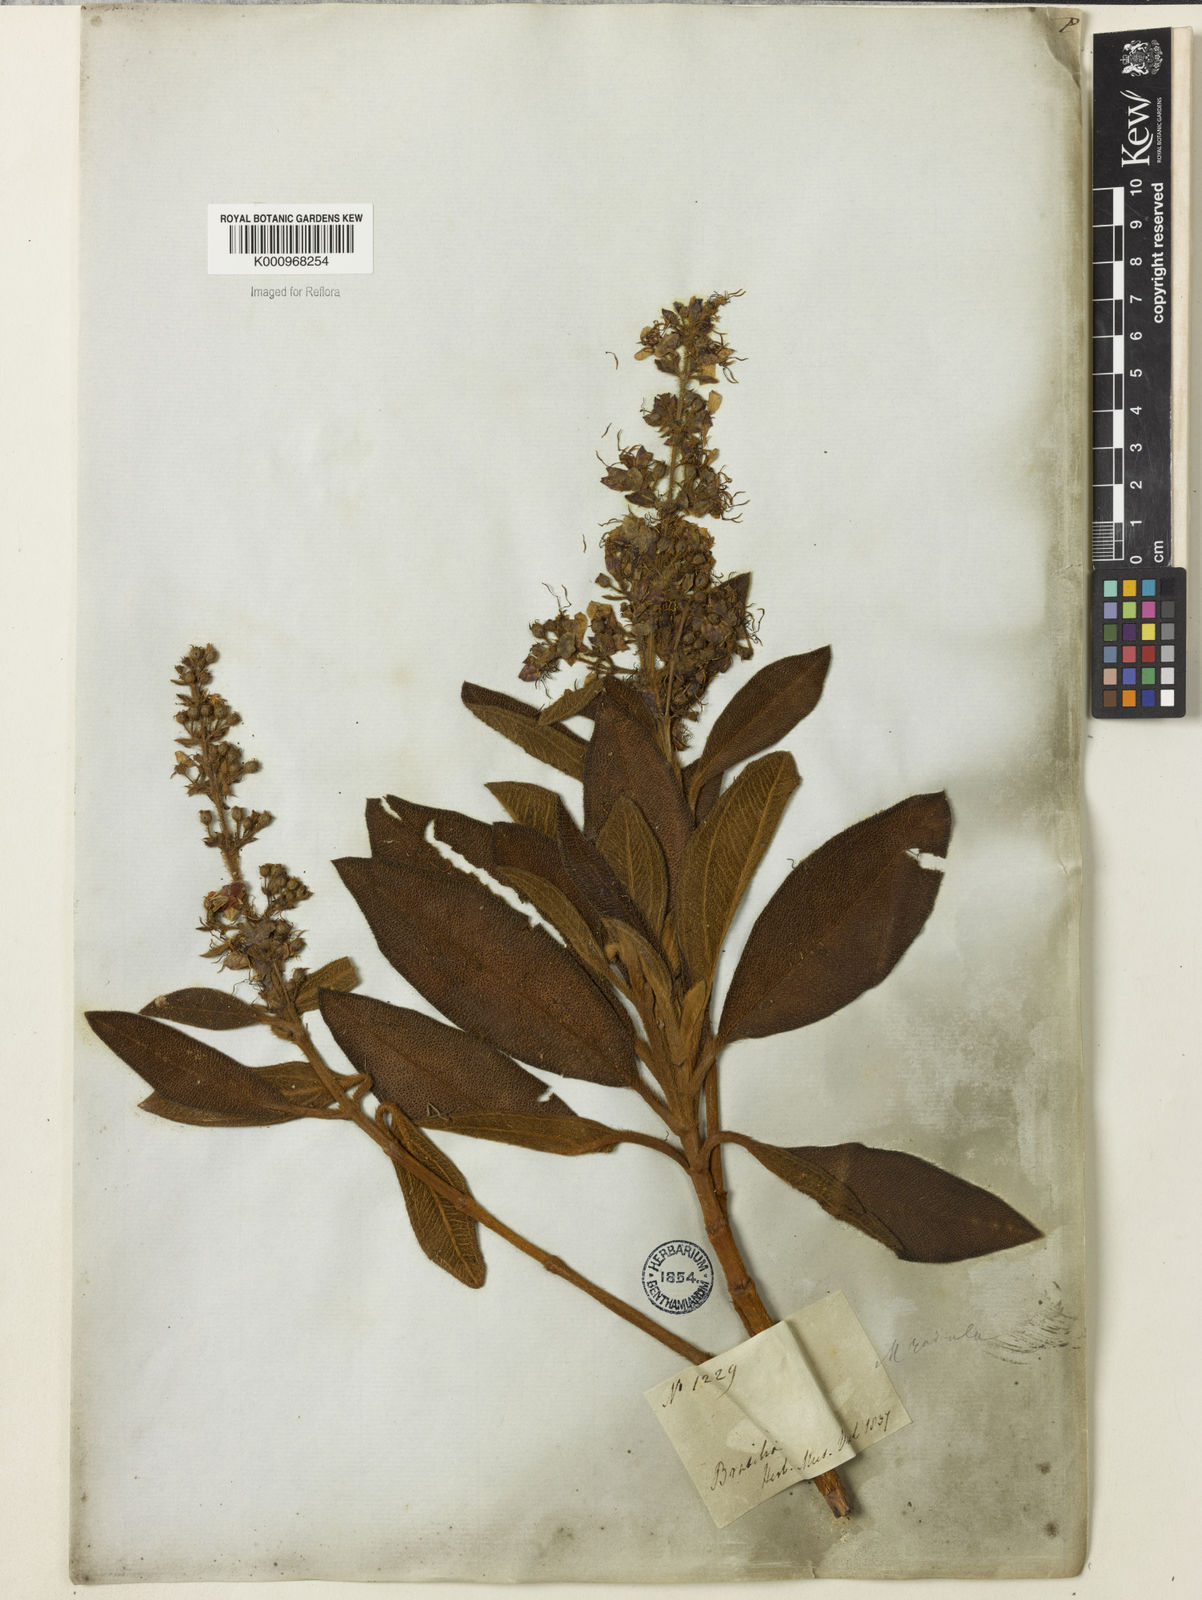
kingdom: Plantae
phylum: Tracheophyta
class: Magnoliopsida
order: Myrtales
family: Melastomataceae
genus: Macairea
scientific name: Macairea radula
